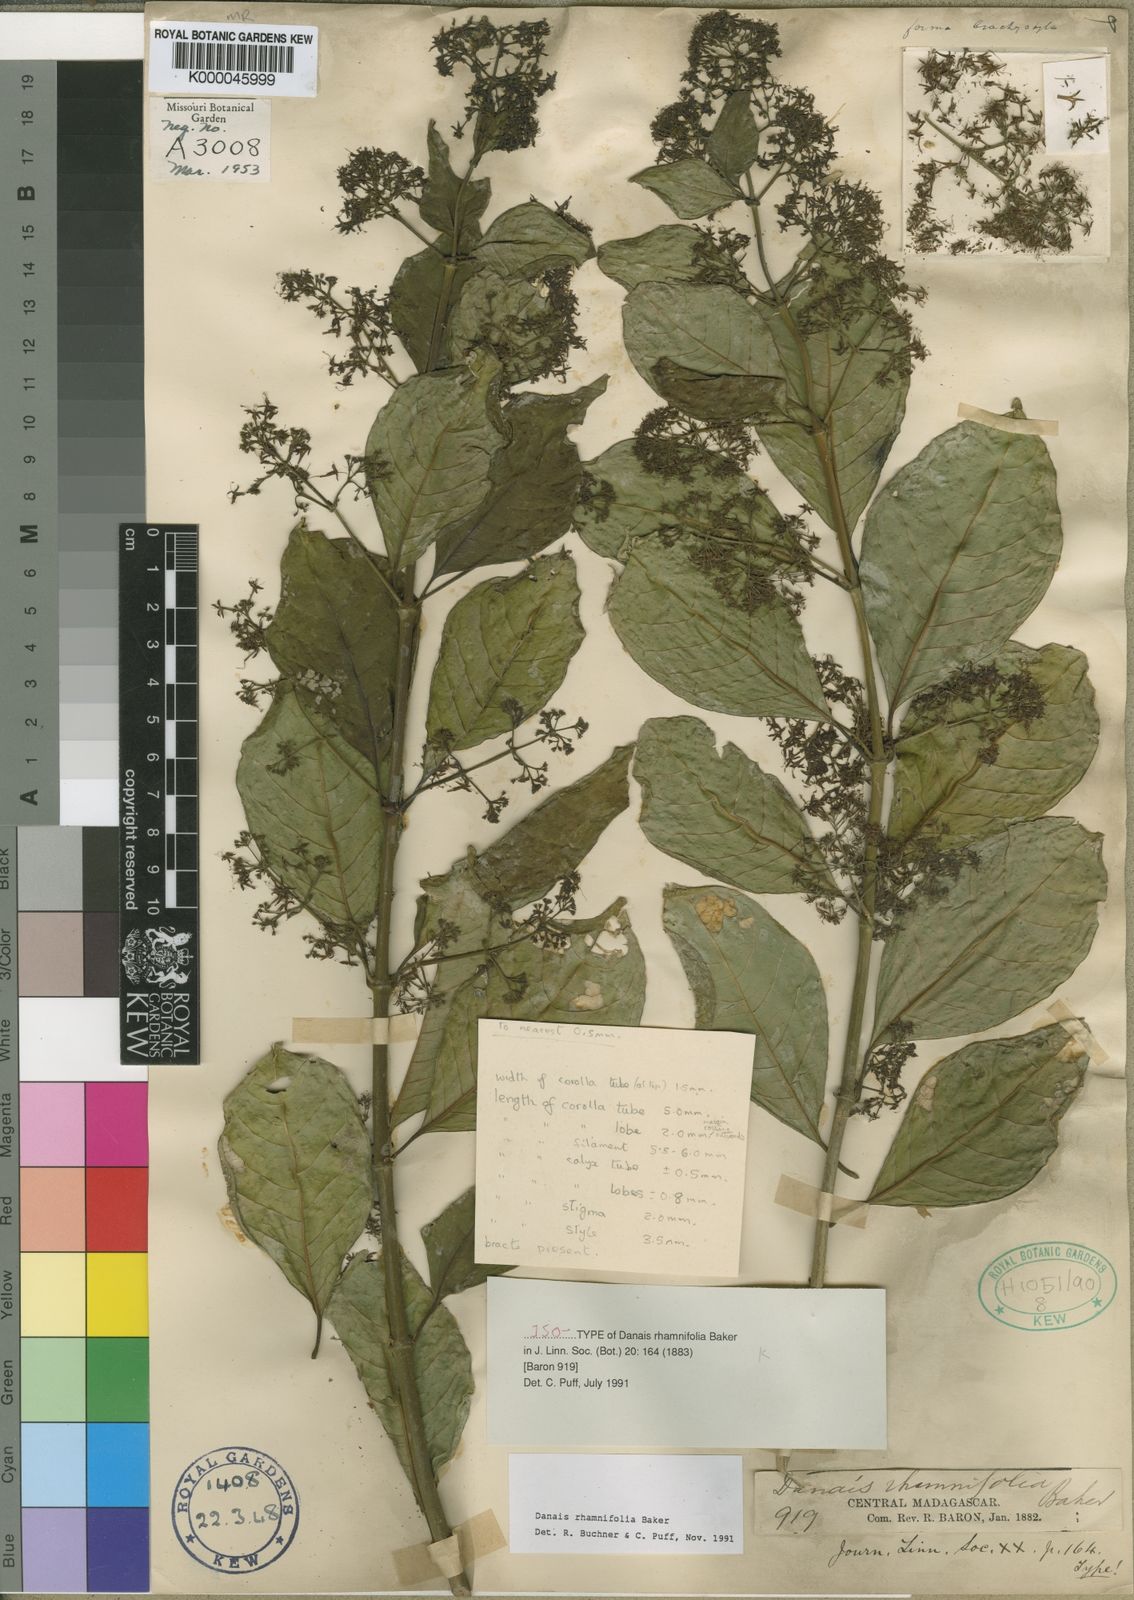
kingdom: Plantae
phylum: Tracheophyta
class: Magnoliopsida
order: Gentianales
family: Rubiaceae
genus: Danais
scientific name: Danais rhamnifolia
